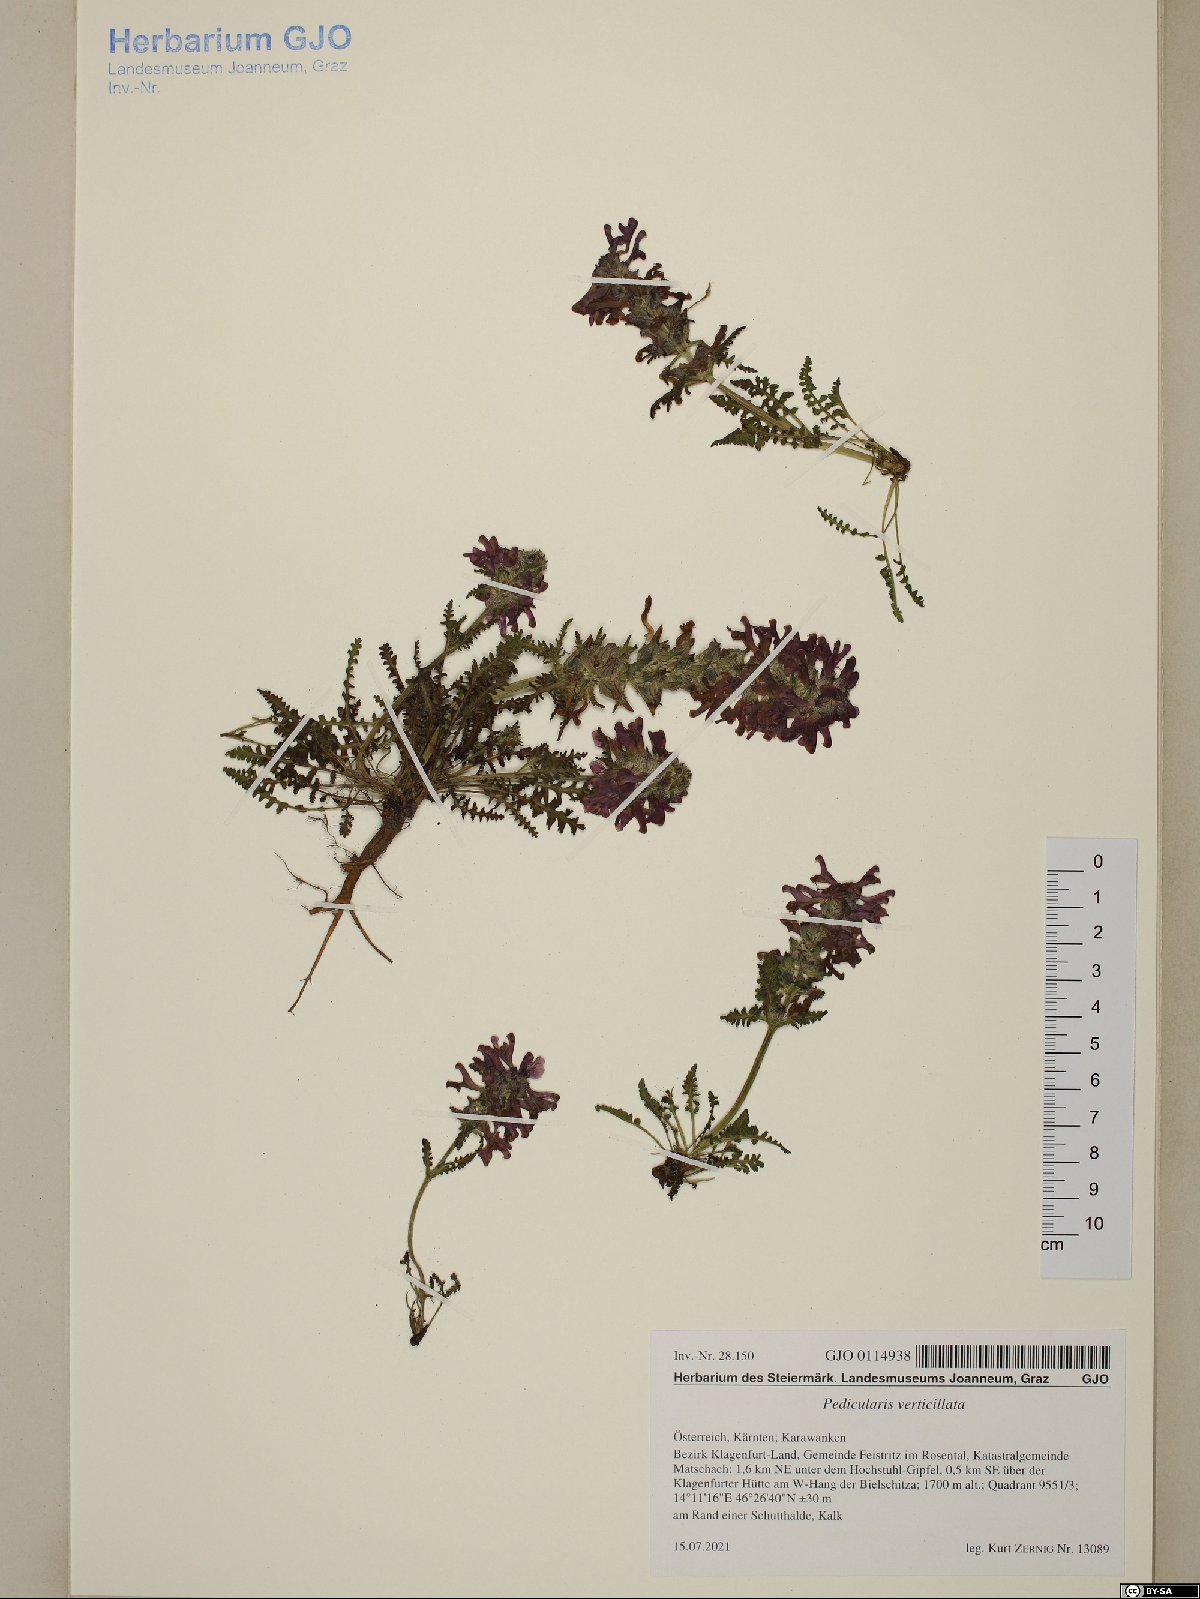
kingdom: Plantae
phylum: Tracheophyta
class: Magnoliopsida
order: Lamiales
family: Orobanchaceae
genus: Pedicularis
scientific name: Pedicularis verticillata
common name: Whorled lousewort
